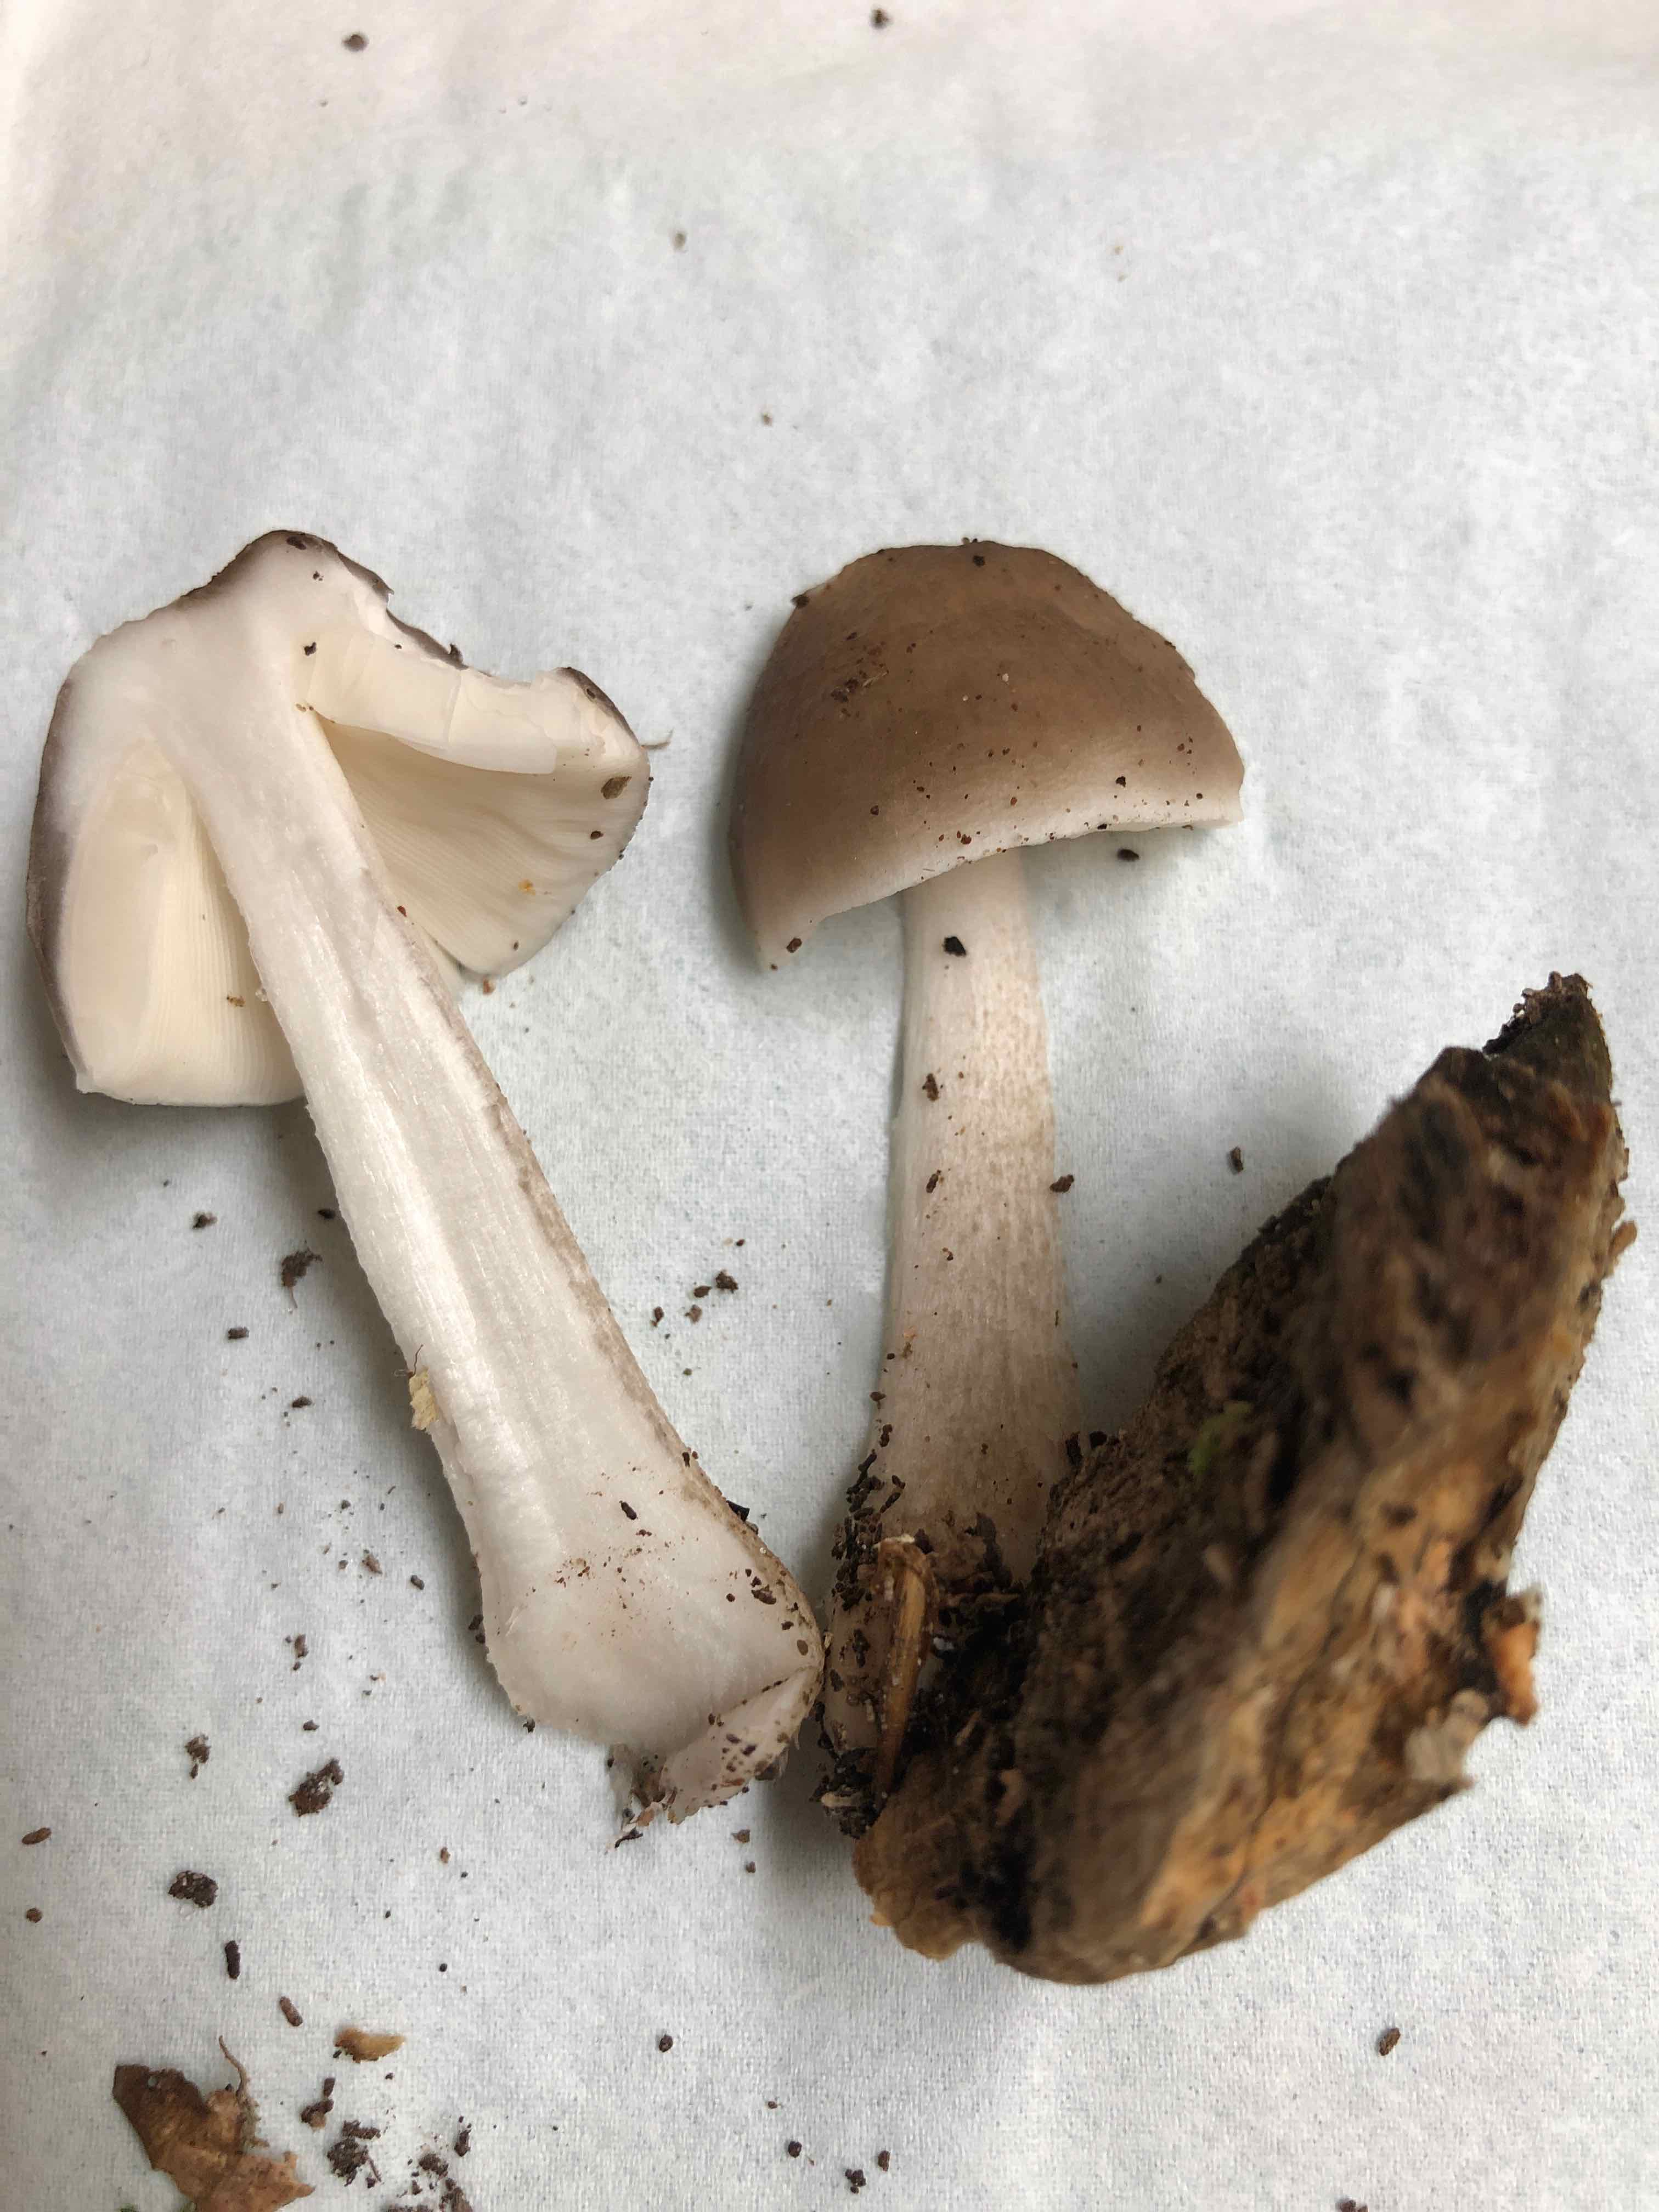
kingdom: Fungi
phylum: Basidiomycota
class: Agaricomycetes
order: Agaricales
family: Pluteaceae
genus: Pluteus
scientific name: Pluteus cervinus
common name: sodfarvet skærmhat
